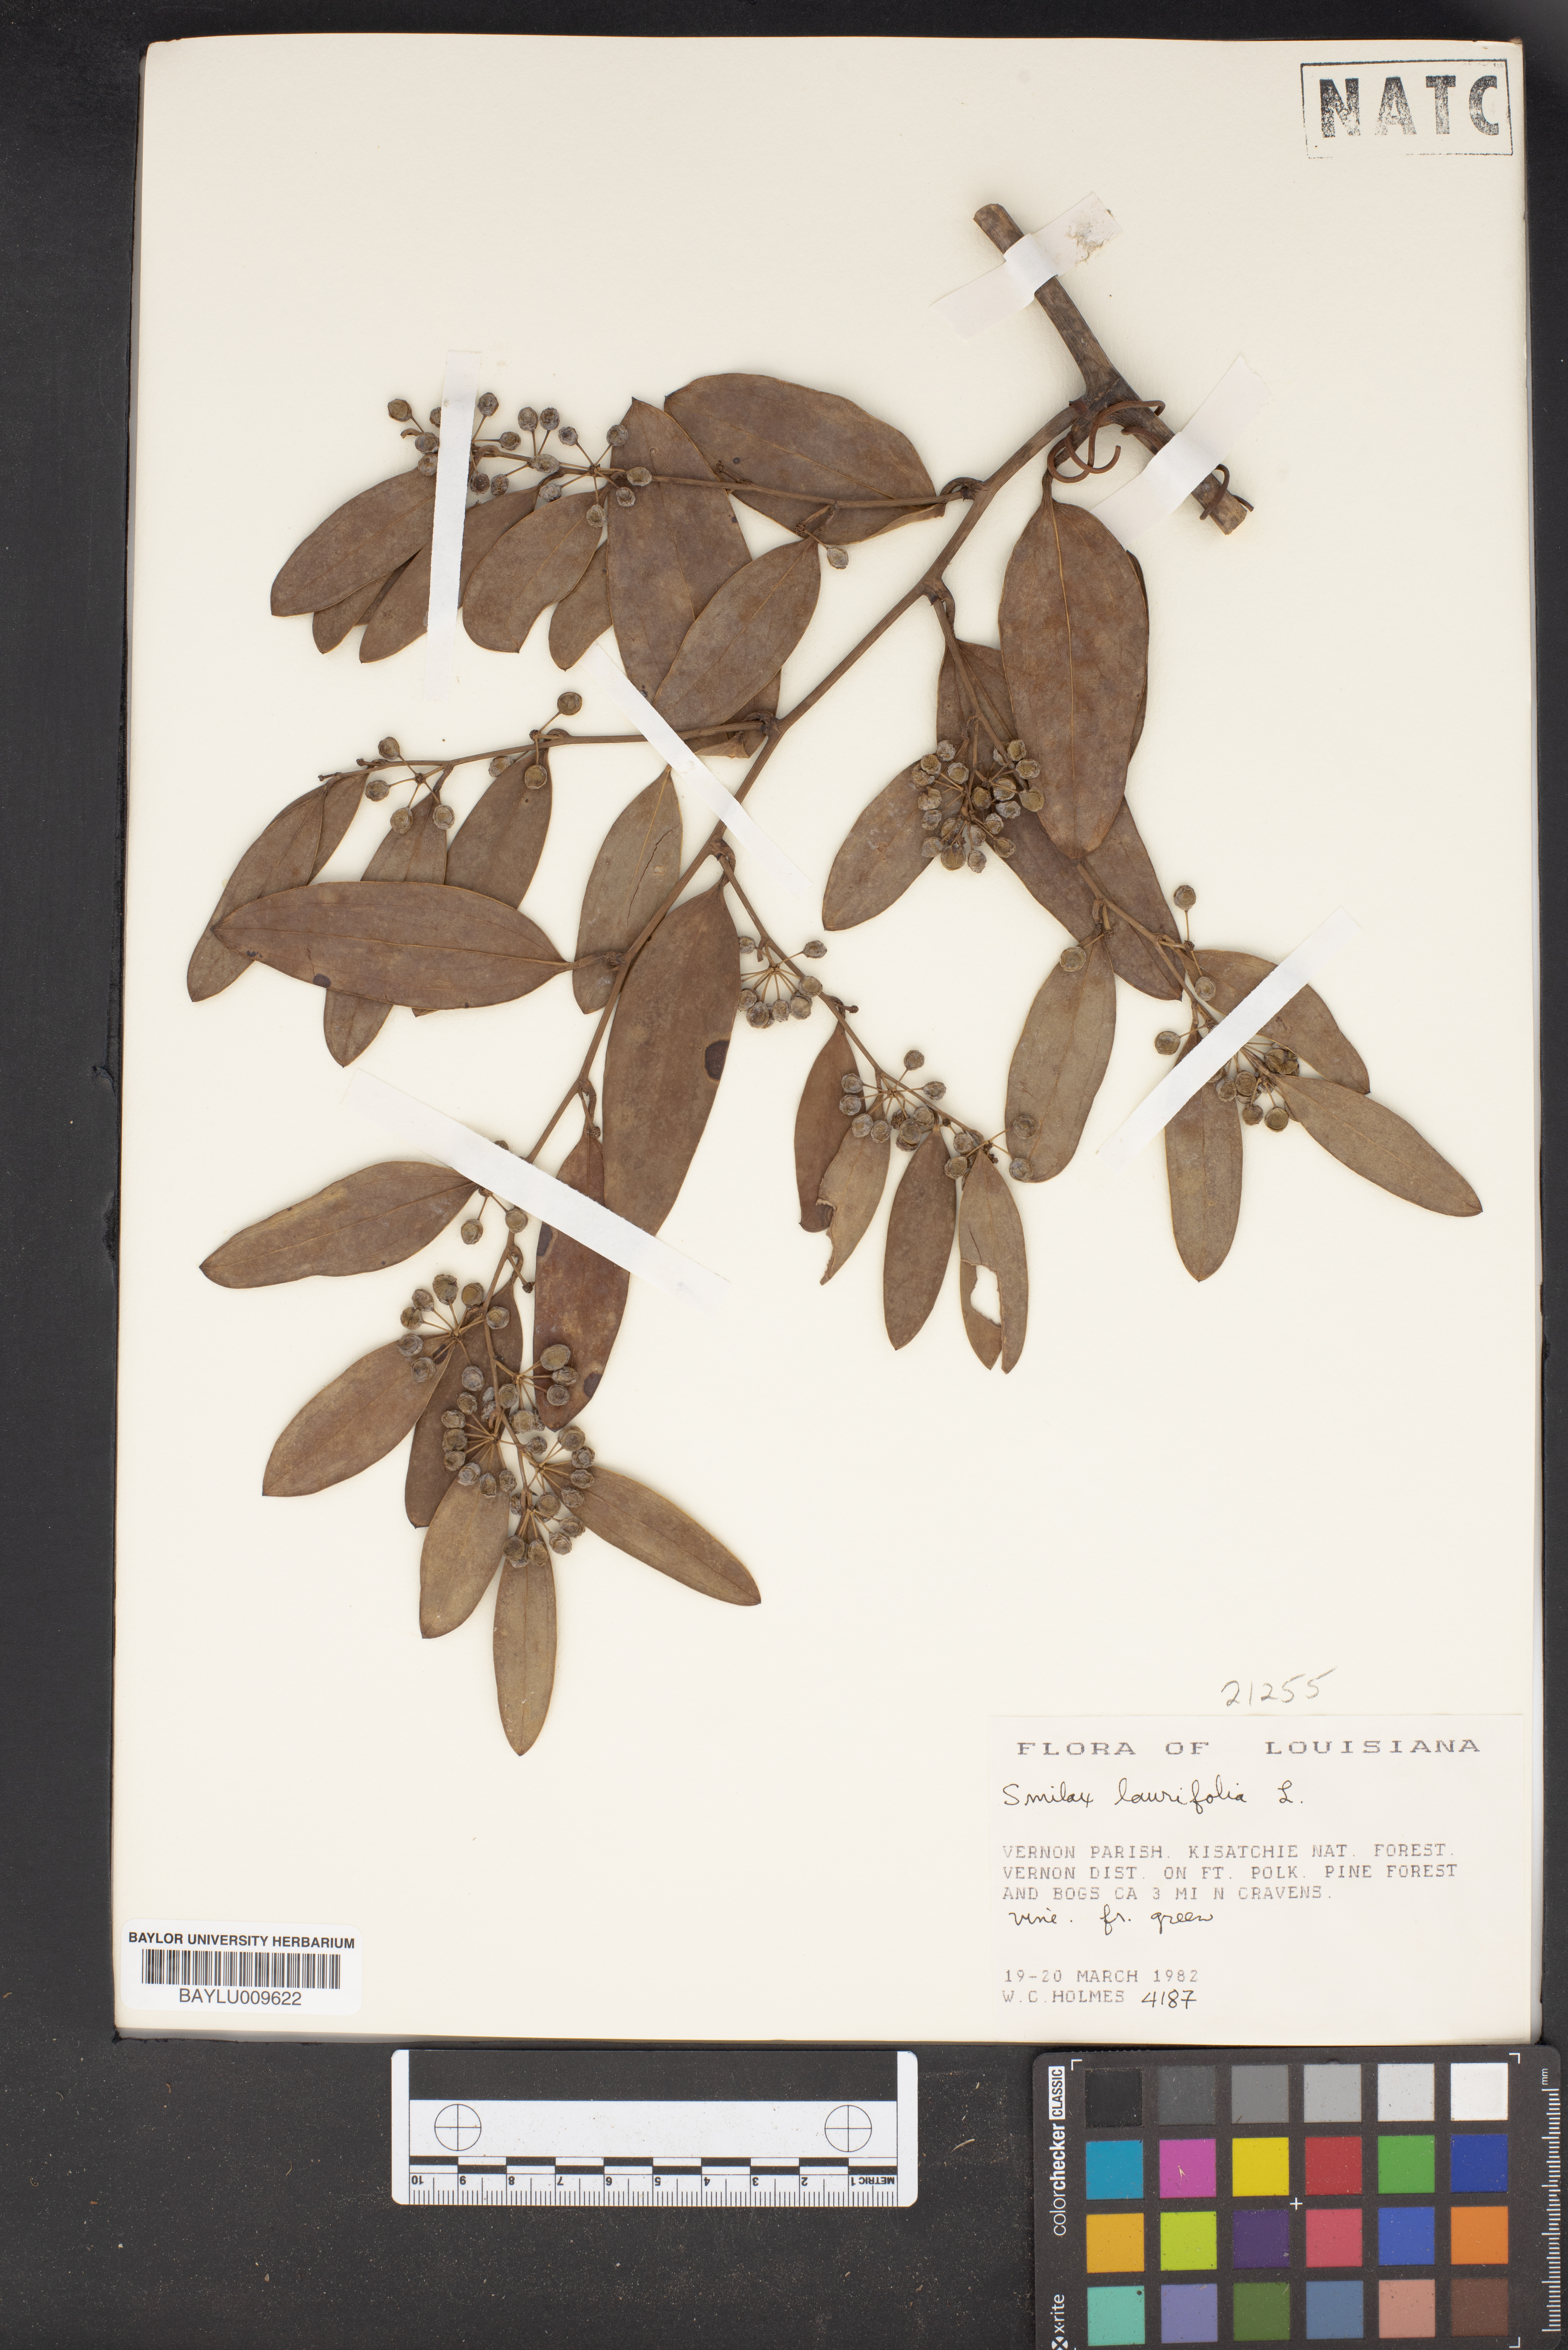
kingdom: Plantae
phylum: Tracheophyta
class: Liliopsida
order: Liliales
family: Smilacaceae
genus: Smilax
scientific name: Smilax laurifolia
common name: Bamboovine
